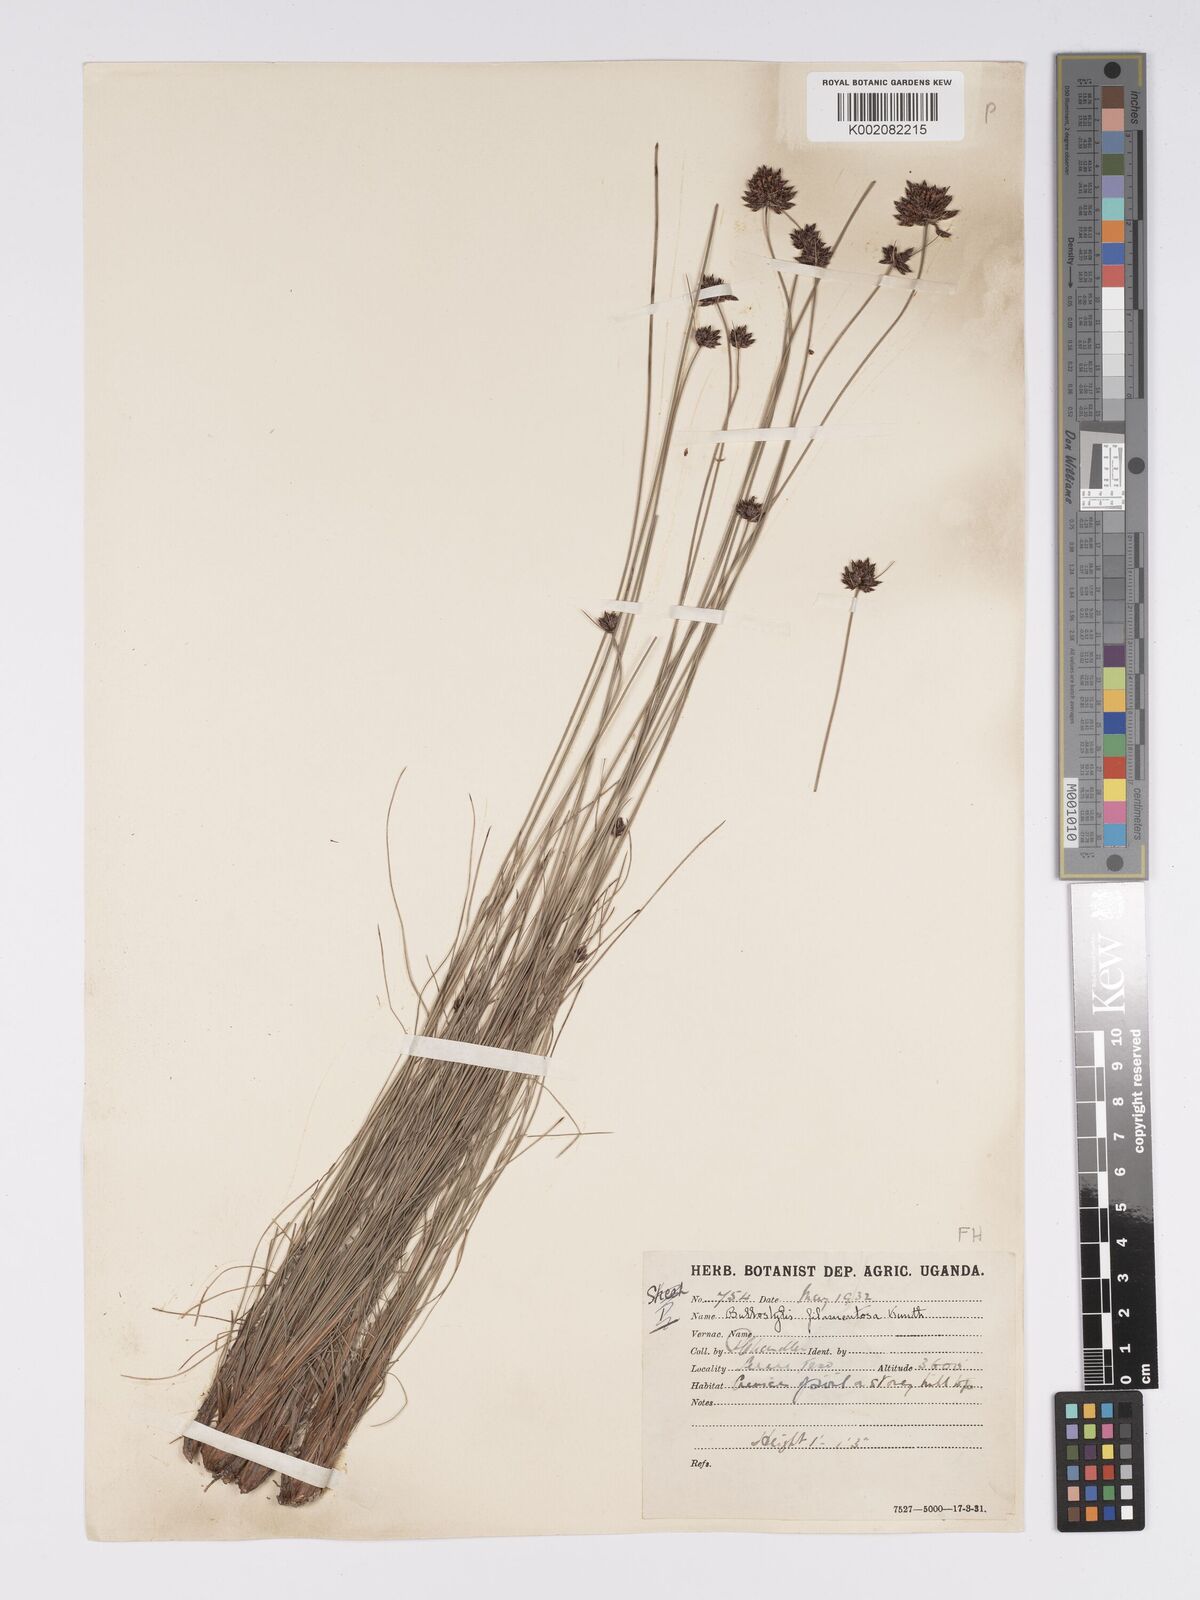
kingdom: Plantae
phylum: Tracheophyta
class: Liliopsida
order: Poales
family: Cyperaceae
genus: Bulbostylis
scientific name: Bulbostylis scabricaulis
